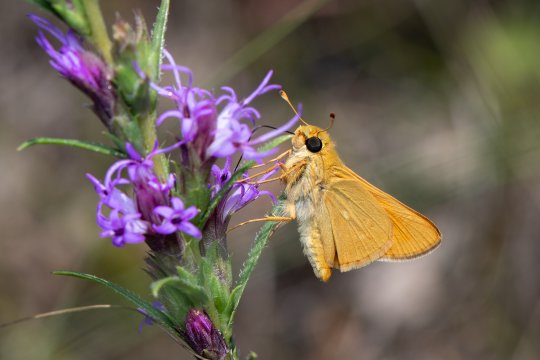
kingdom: Animalia
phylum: Arthropoda
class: Insecta
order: Lepidoptera
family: Hesperiidae
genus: Hesperia
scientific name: Hesperia leonardus
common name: Leonard's Skipper
